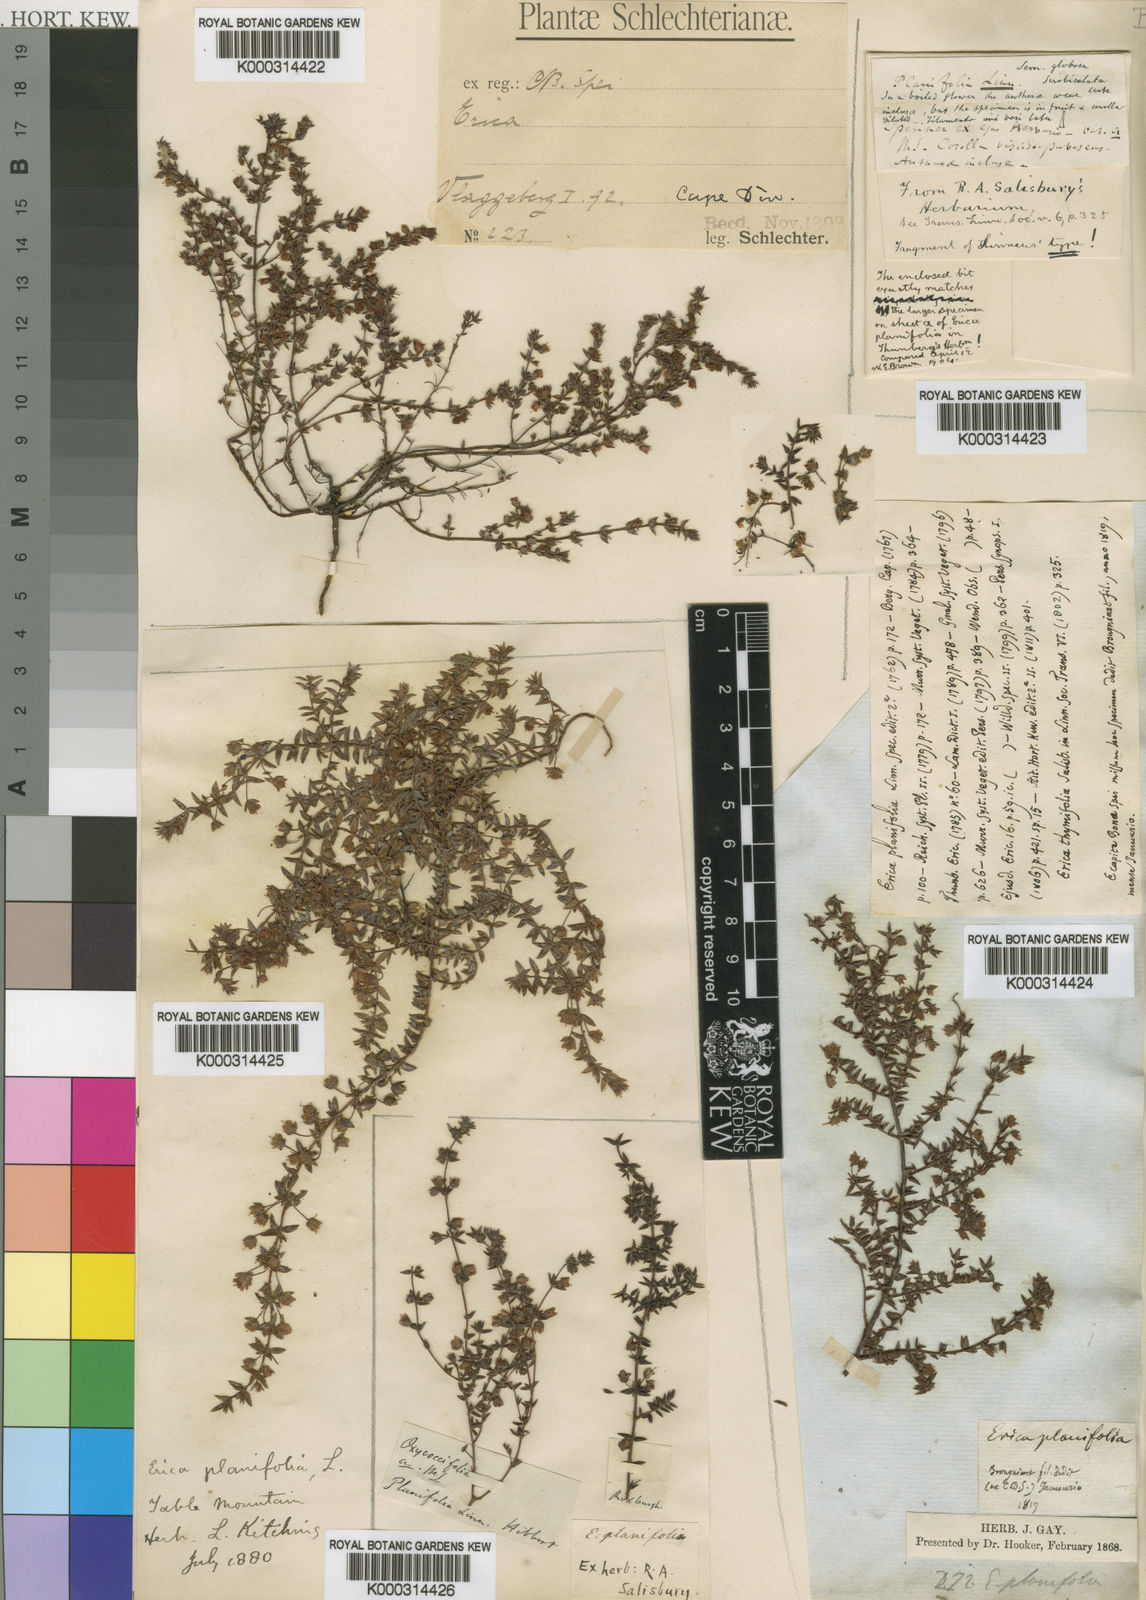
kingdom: Plantae
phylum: Tracheophyta
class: Magnoliopsida
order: Ericales
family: Ericaceae
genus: Erica
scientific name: Erica planifolia
